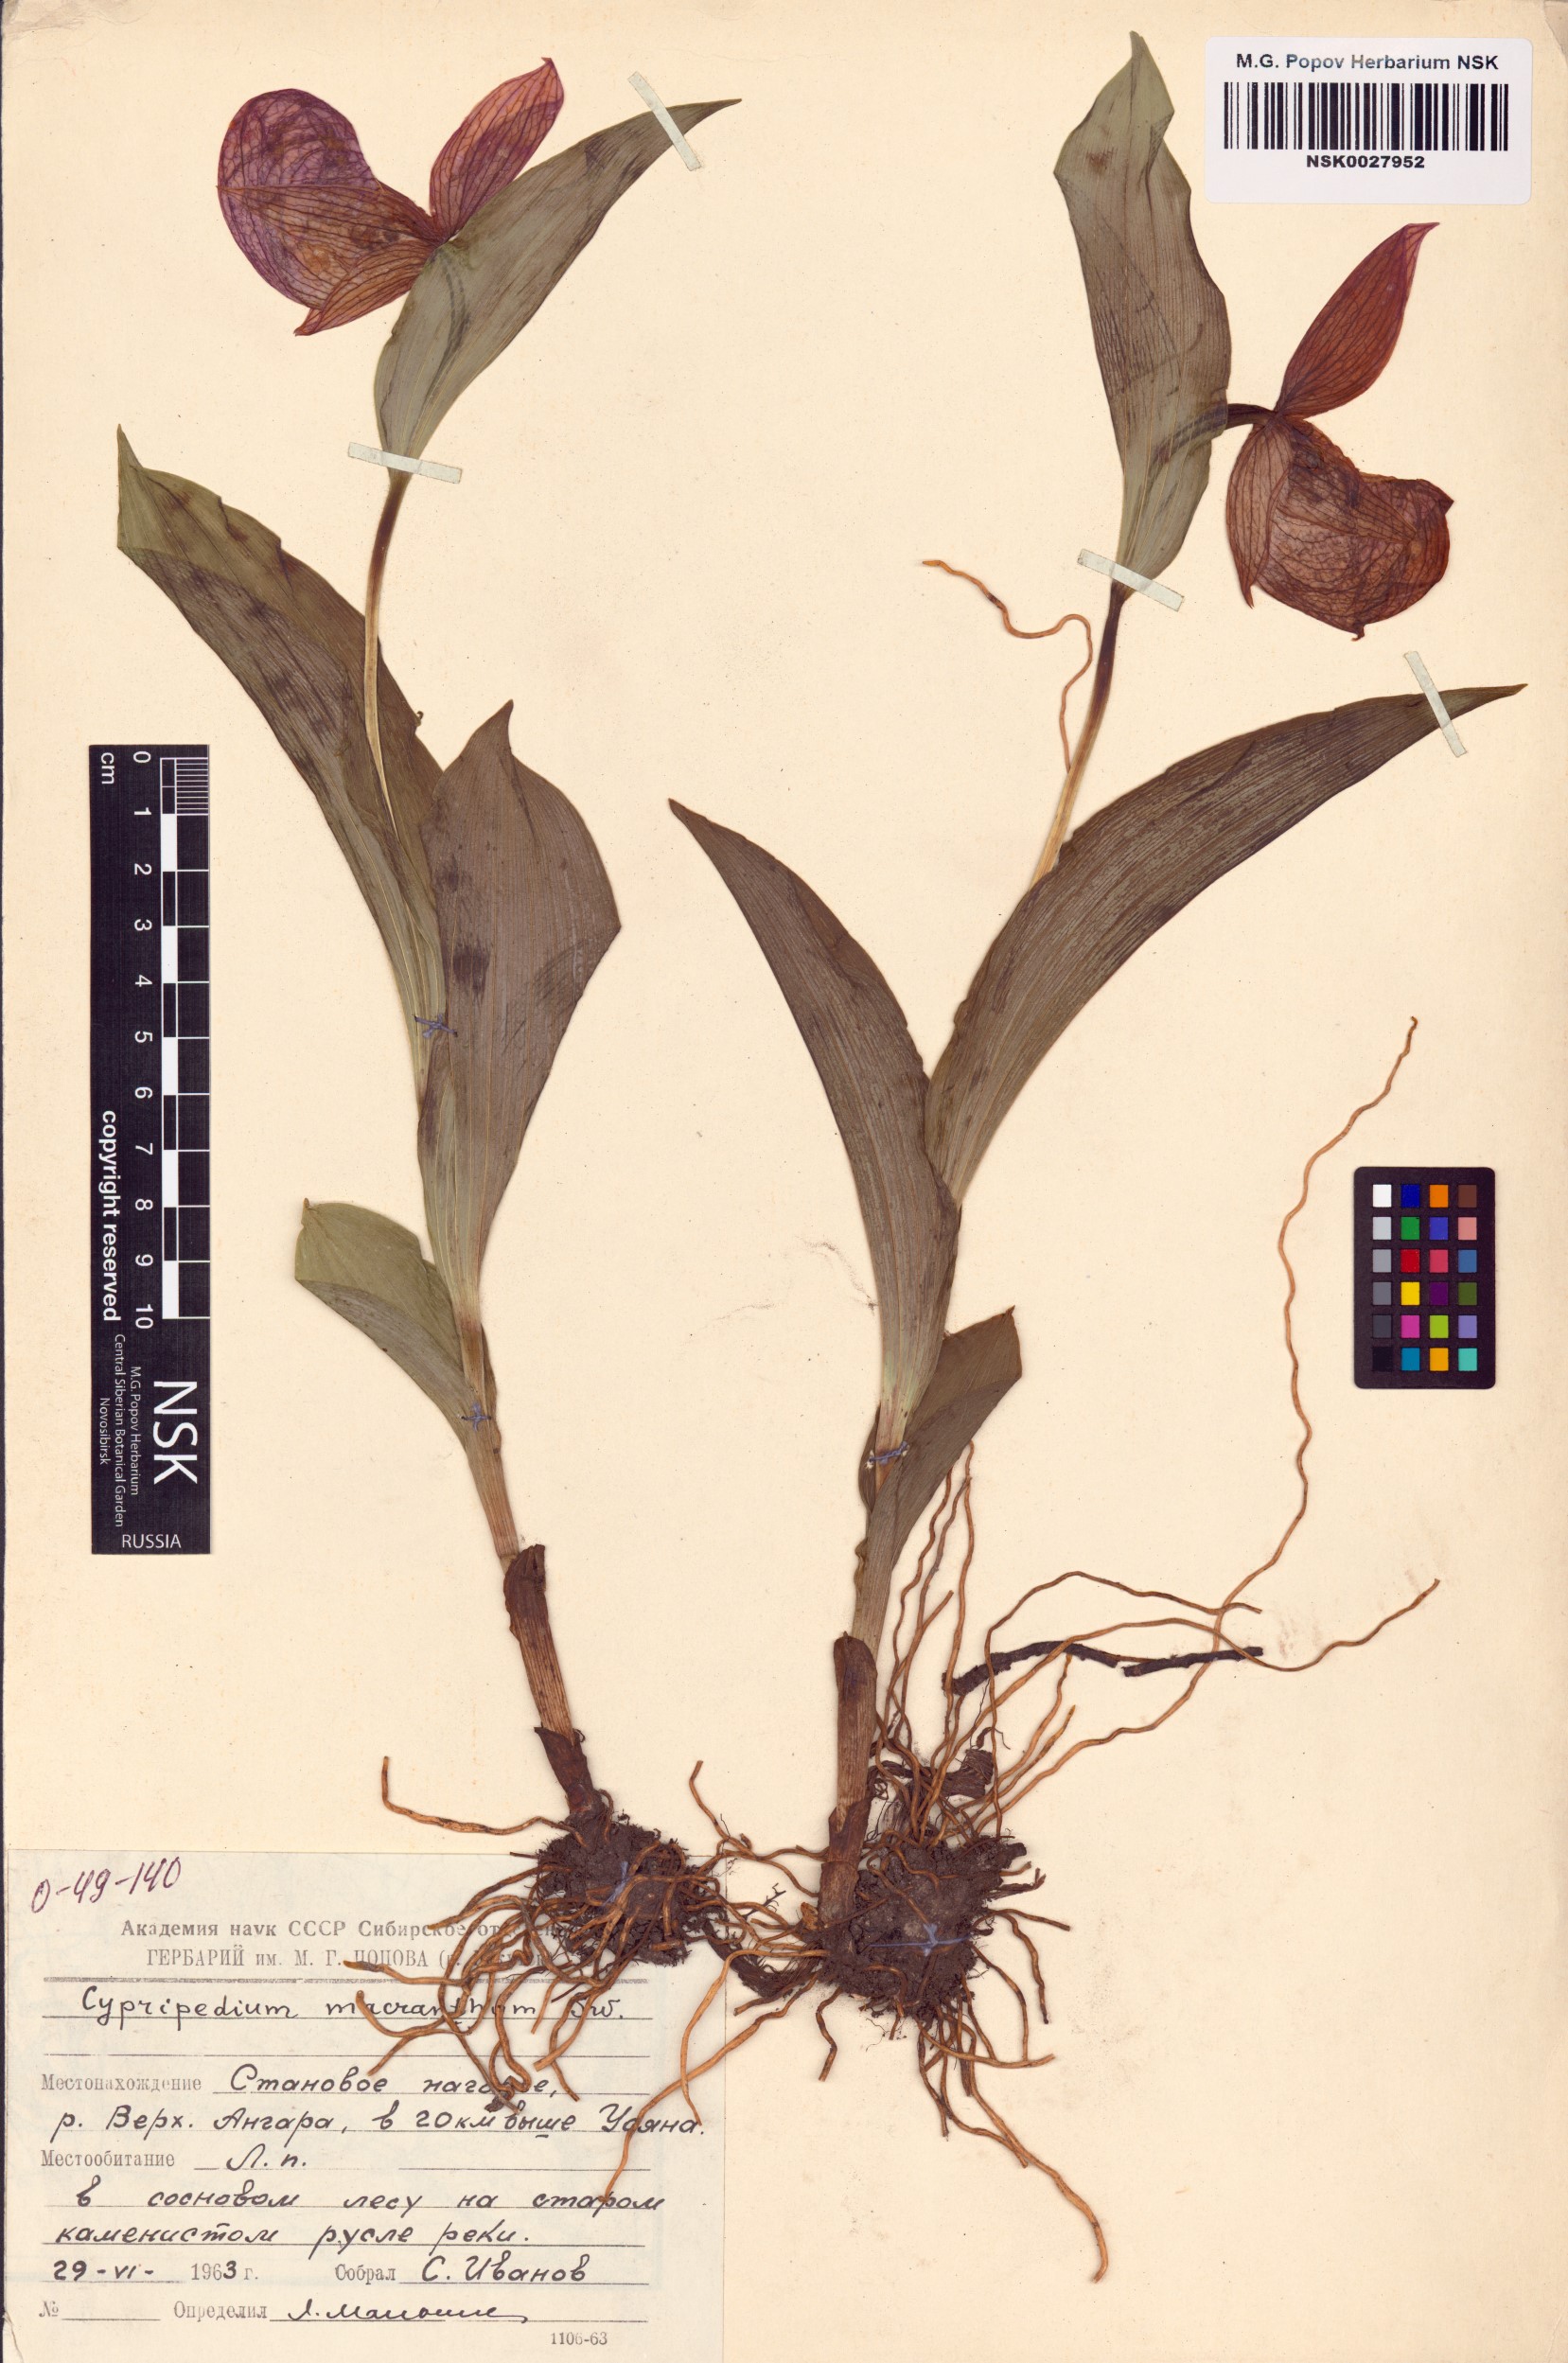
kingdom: Plantae
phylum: Tracheophyta
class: Liliopsida
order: Asparagales
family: Orchidaceae
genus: Cypripedium
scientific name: Cypripedium macranthos
